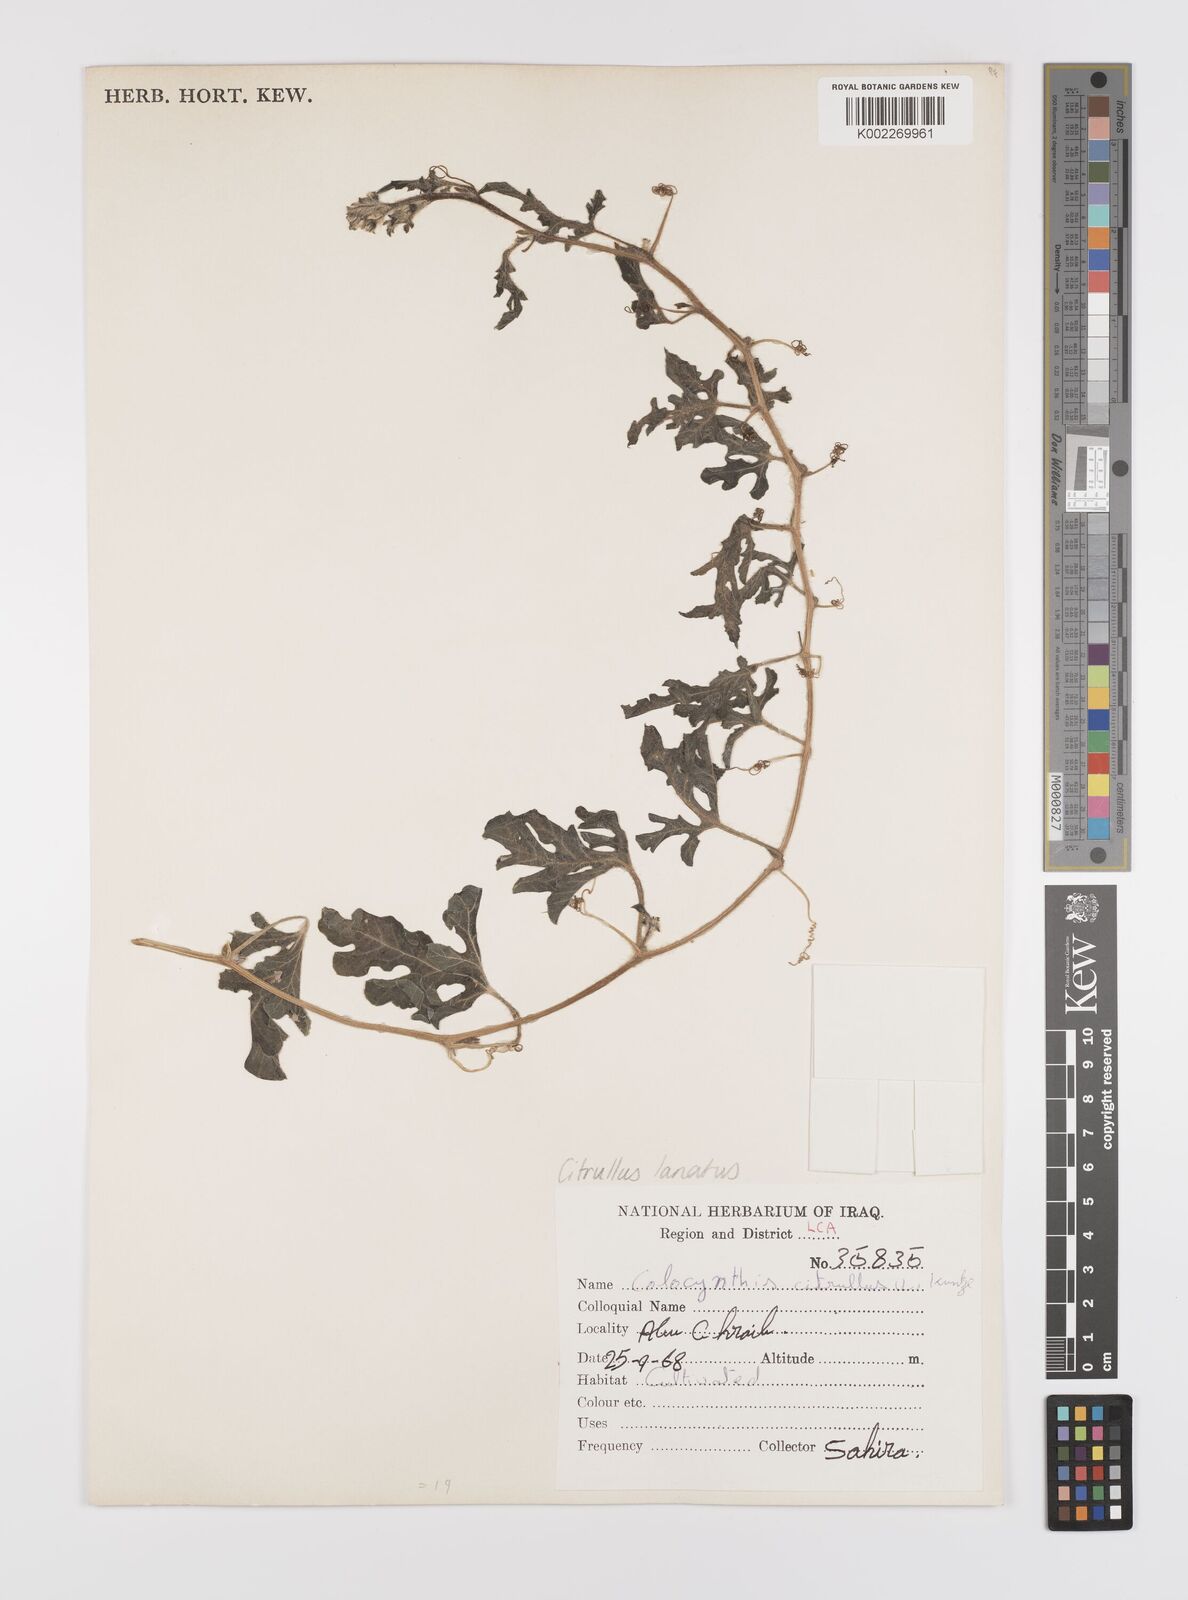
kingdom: Plantae
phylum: Tracheophyta
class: Magnoliopsida
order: Cucurbitales
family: Cucurbitaceae
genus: Citrullus
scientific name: Citrullus lanatus
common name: Watermelon
